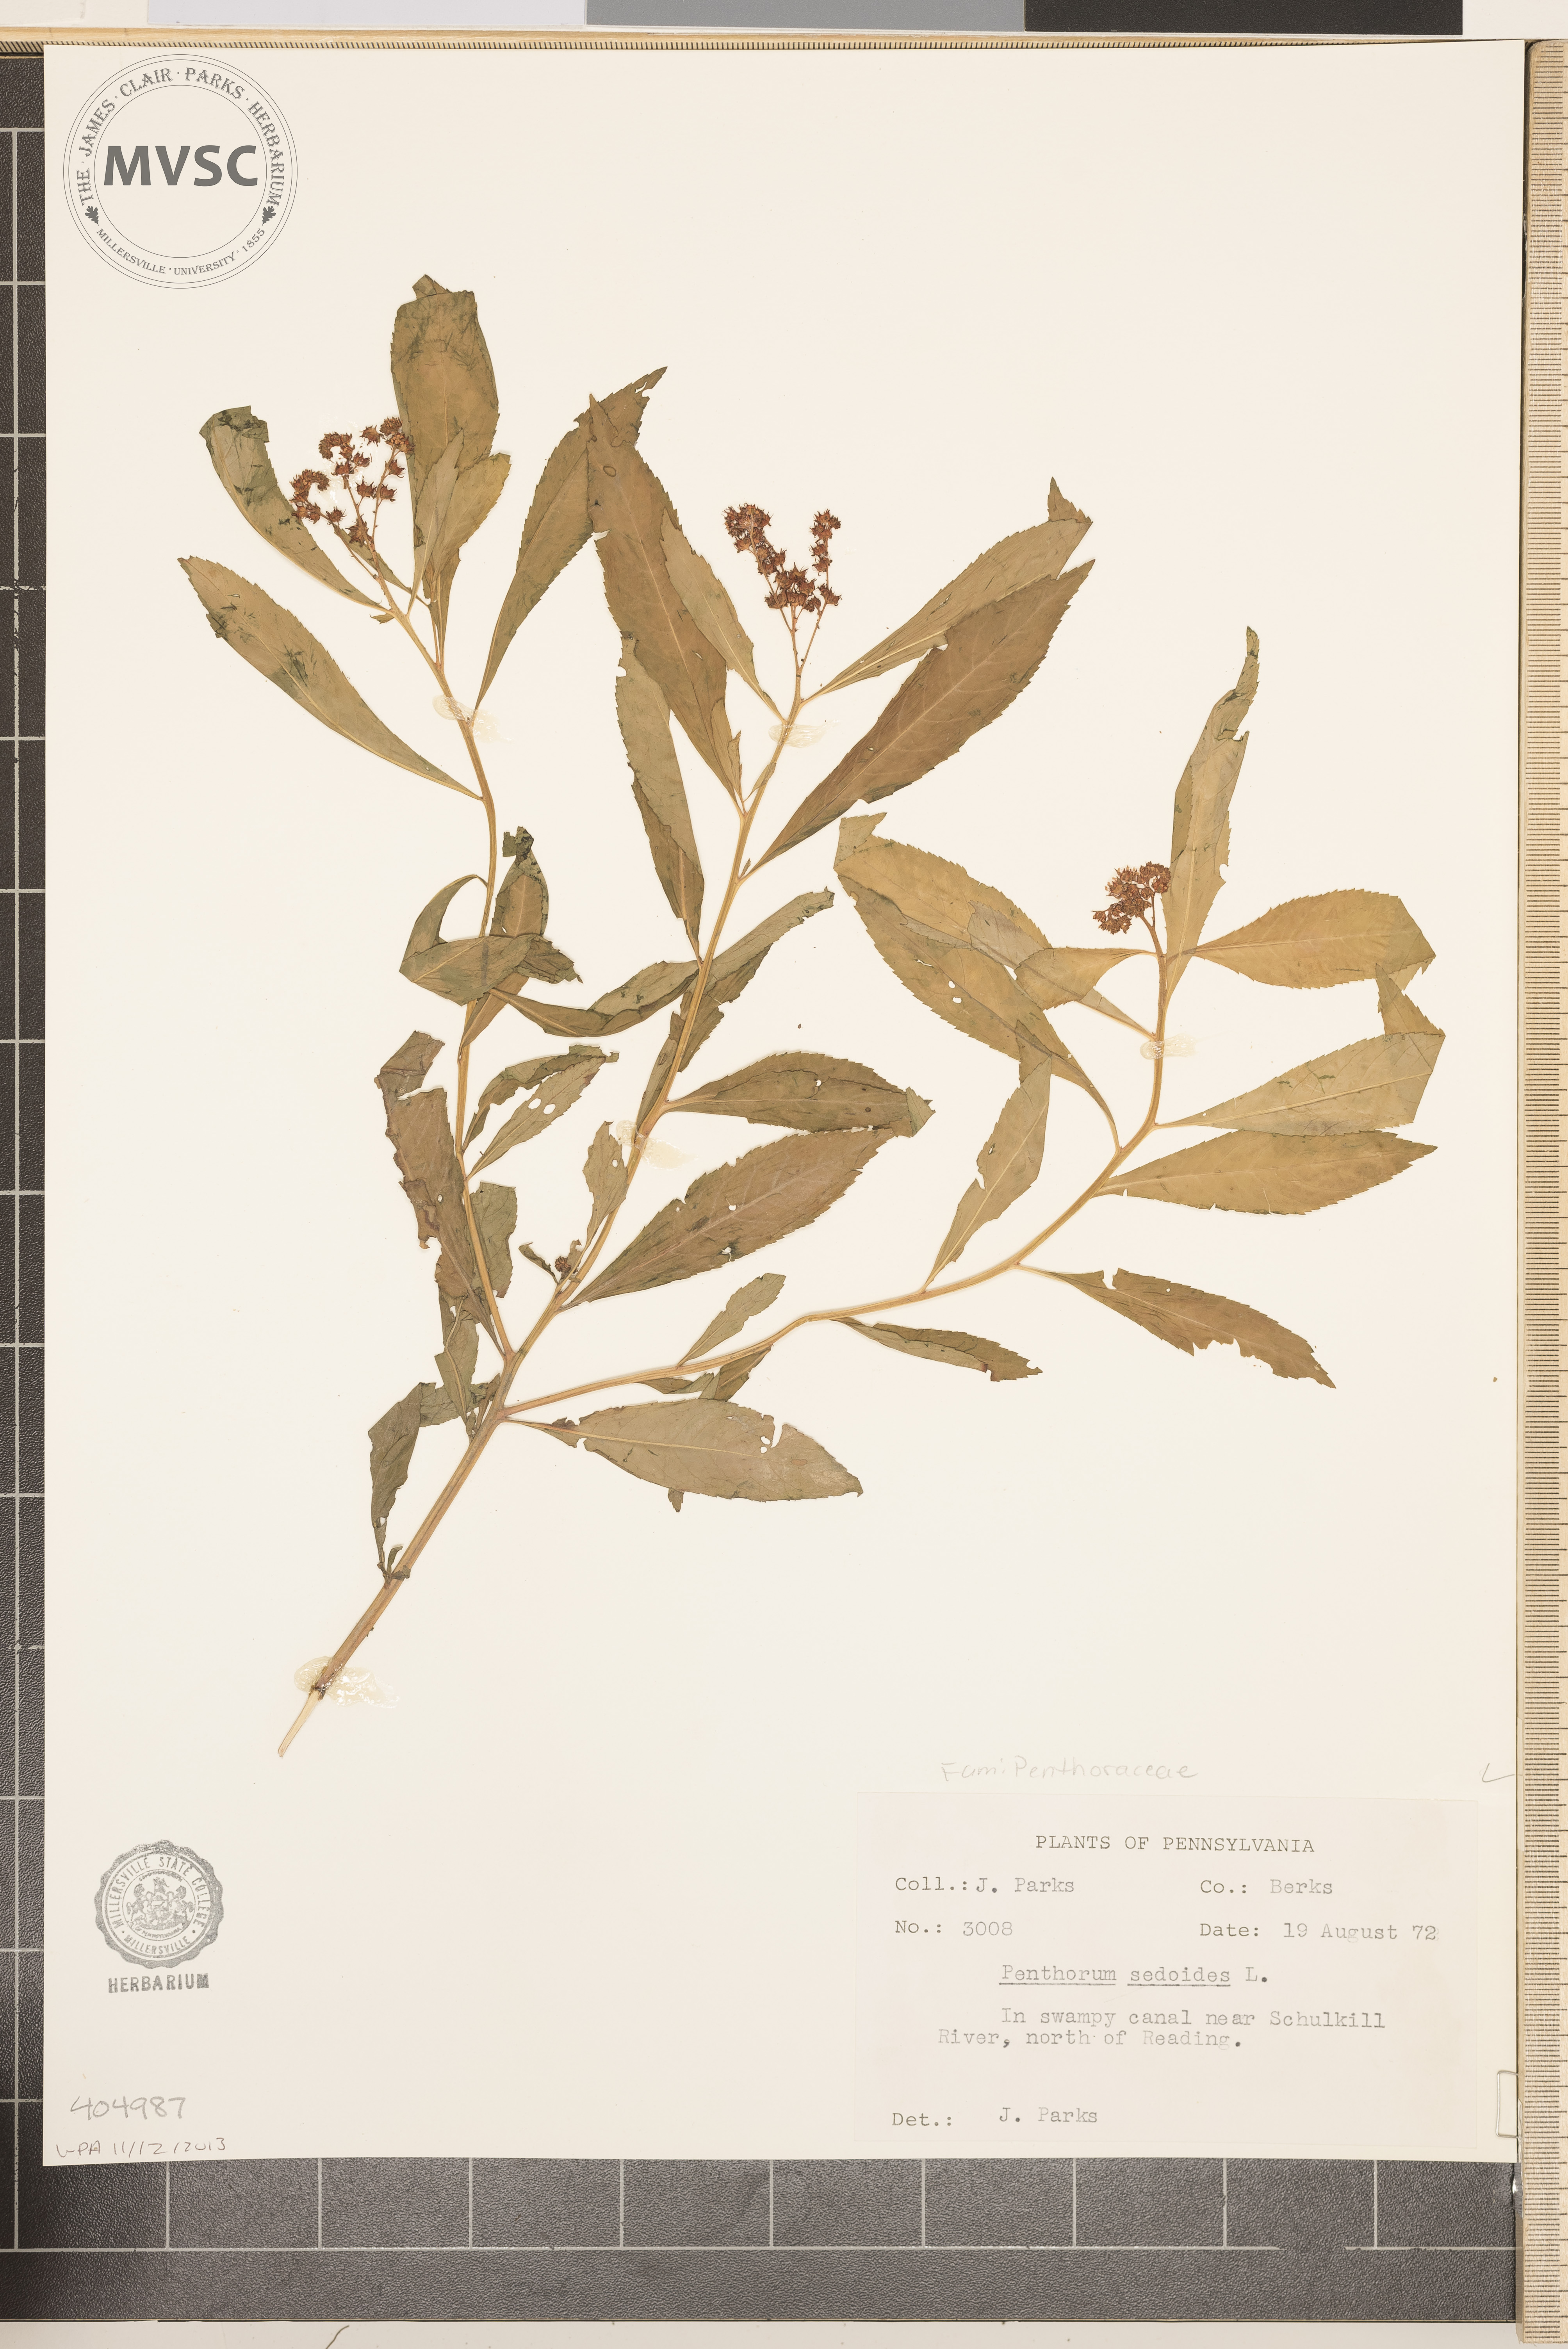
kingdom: Plantae
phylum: Tracheophyta
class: Magnoliopsida
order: Saxifragales
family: Penthoraceae
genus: Penthorum
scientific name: Penthorum sedoides
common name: Ditch stonecrop
